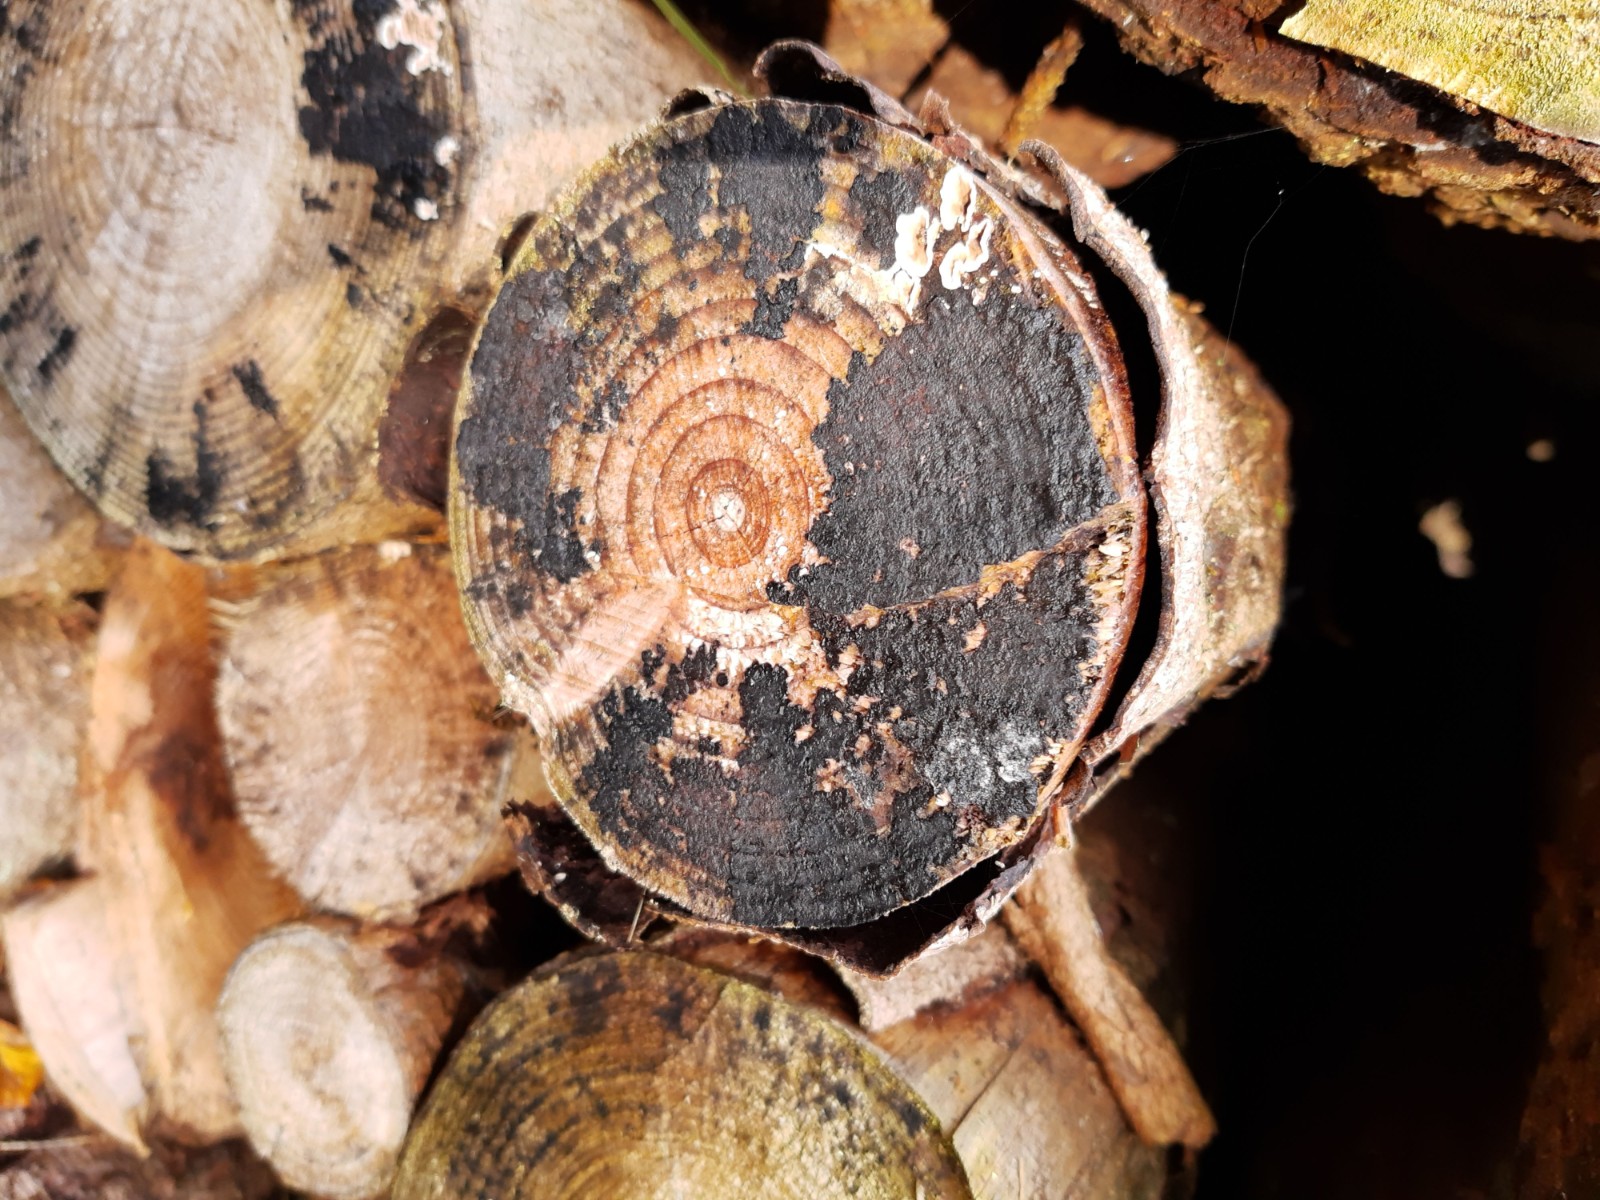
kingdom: Fungi
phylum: Basidiomycota
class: Agaricomycetes
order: Auriculariales
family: Auriculariaceae
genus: Exidia
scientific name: Exidia pithya
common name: gran-bævretop
